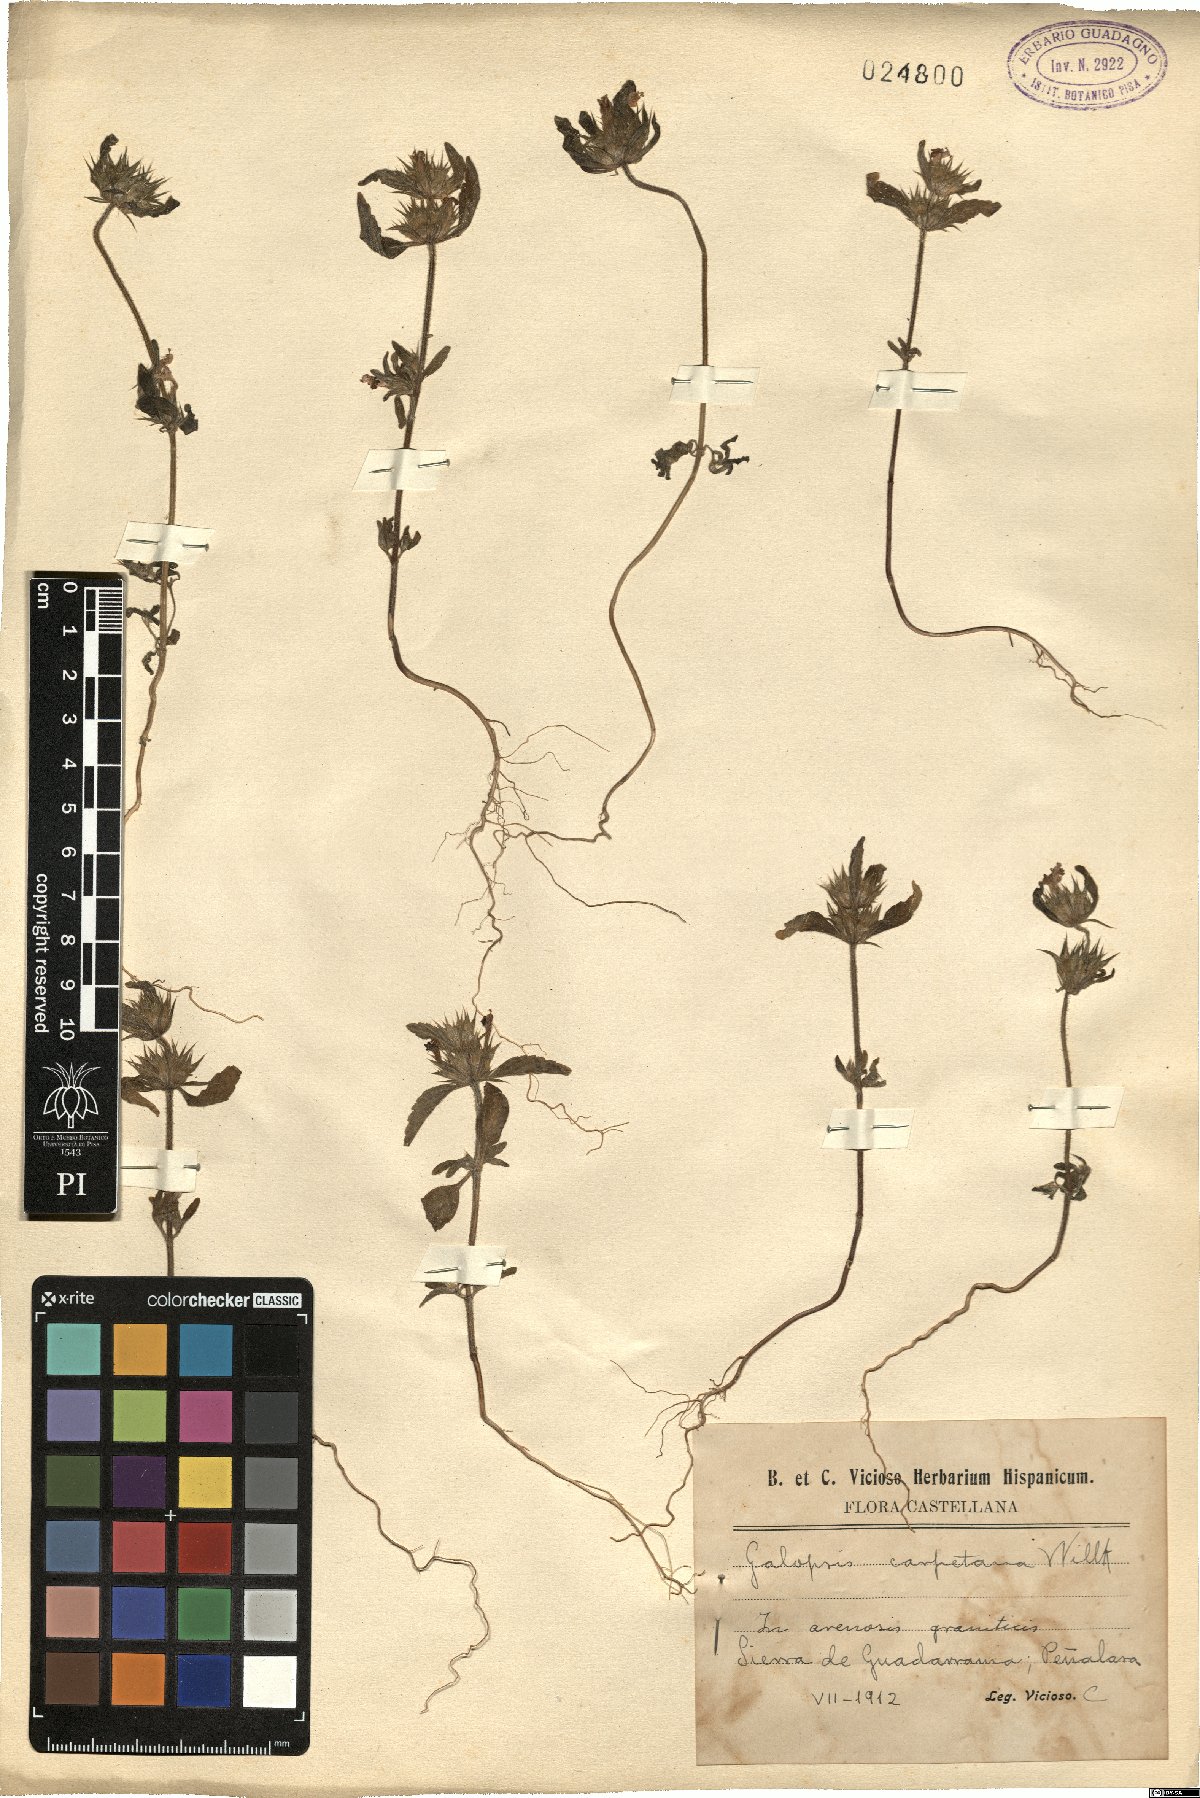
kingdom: Plantae
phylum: Tracheophyta
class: Magnoliopsida
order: Lamiales
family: Lamiaceae
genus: Galeopsis
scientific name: Galeopsis ladanum
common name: Broad-leaved hemp-nettle
